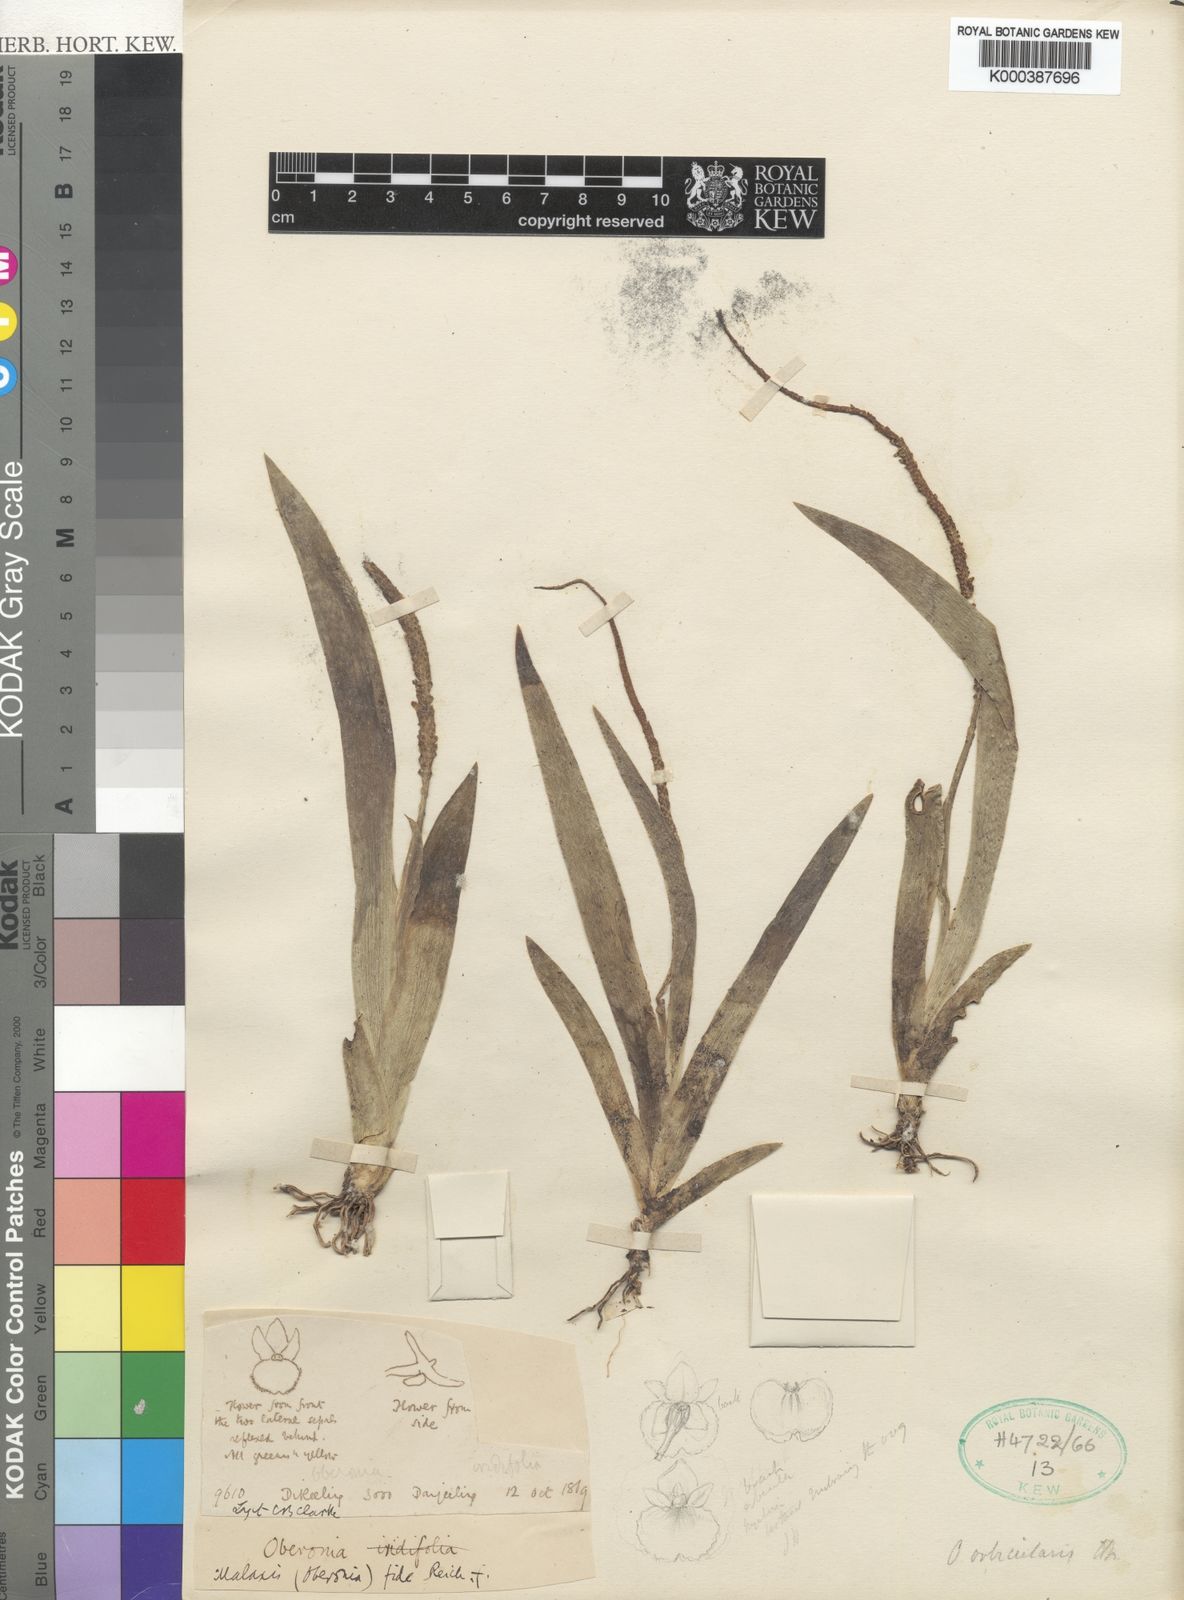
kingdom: Plantae
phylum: Tracheophyta
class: Liliopsida
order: Asparagales
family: Orchidaceae
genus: Oberonia
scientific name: Oberonia orbicularis
